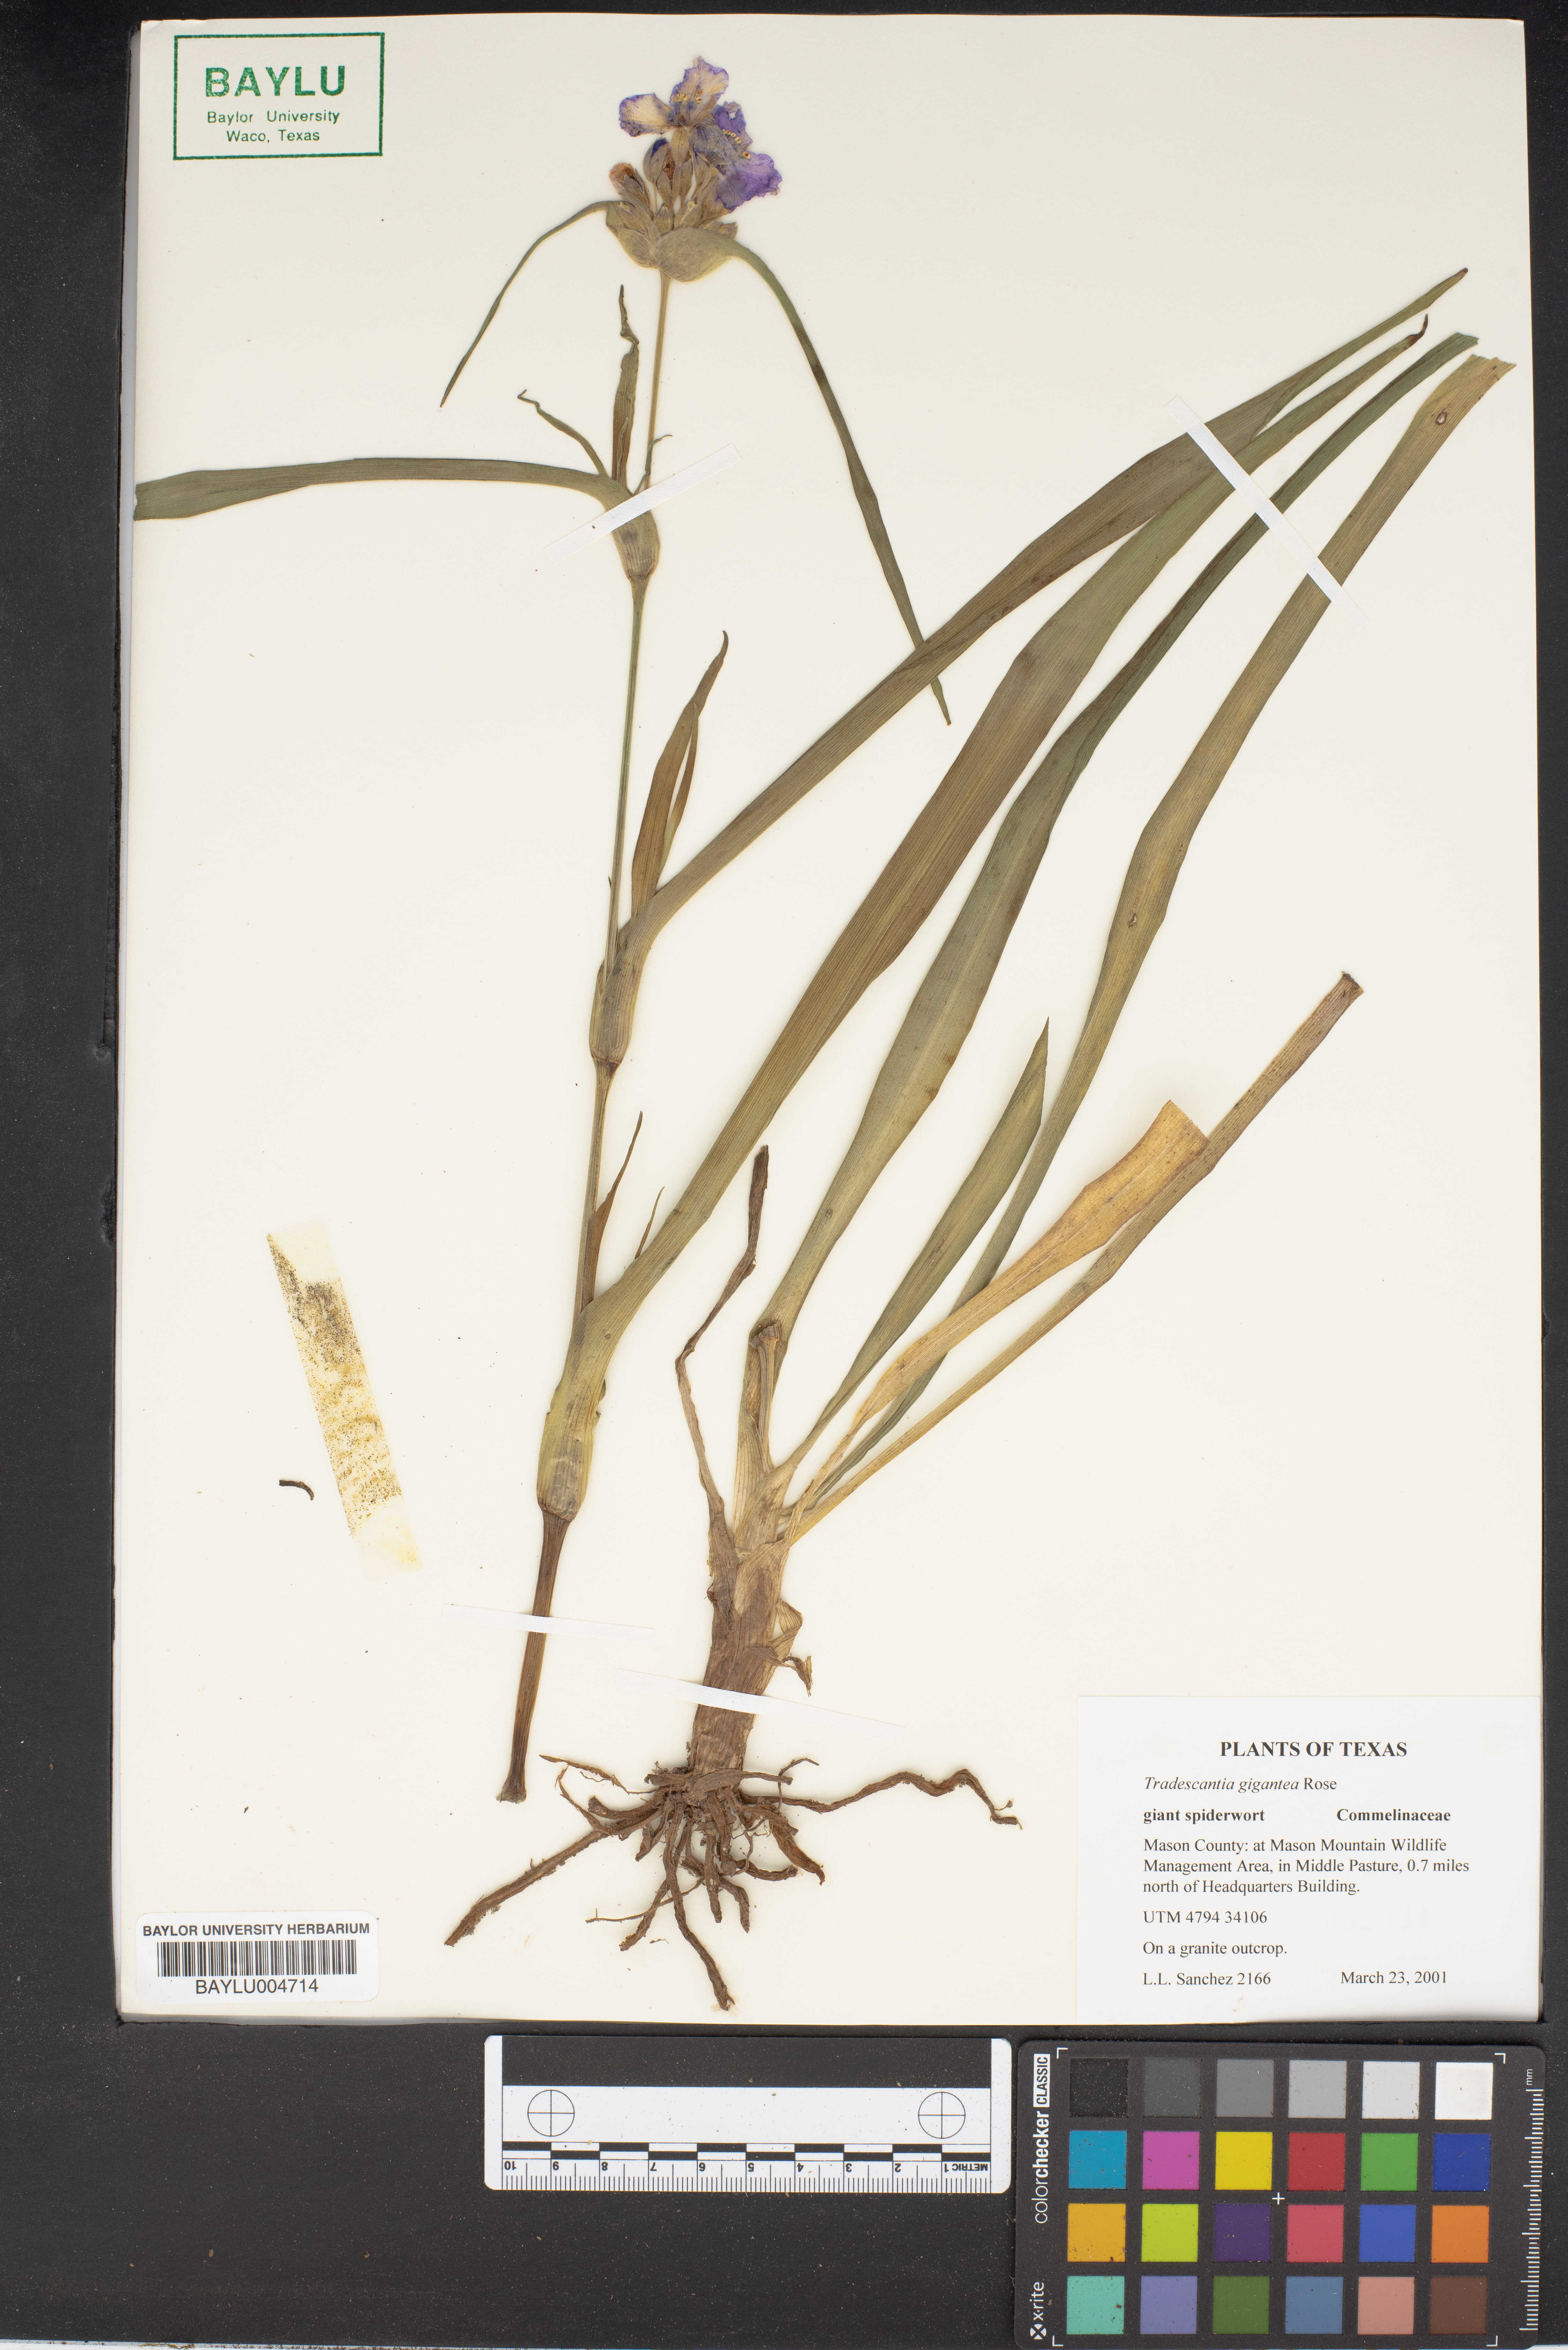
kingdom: Plantae
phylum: Tracheophyta
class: Liliopsida
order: Commelinales
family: Commelinaceae
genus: Tradescantia
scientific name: Tradescantia gigantea
